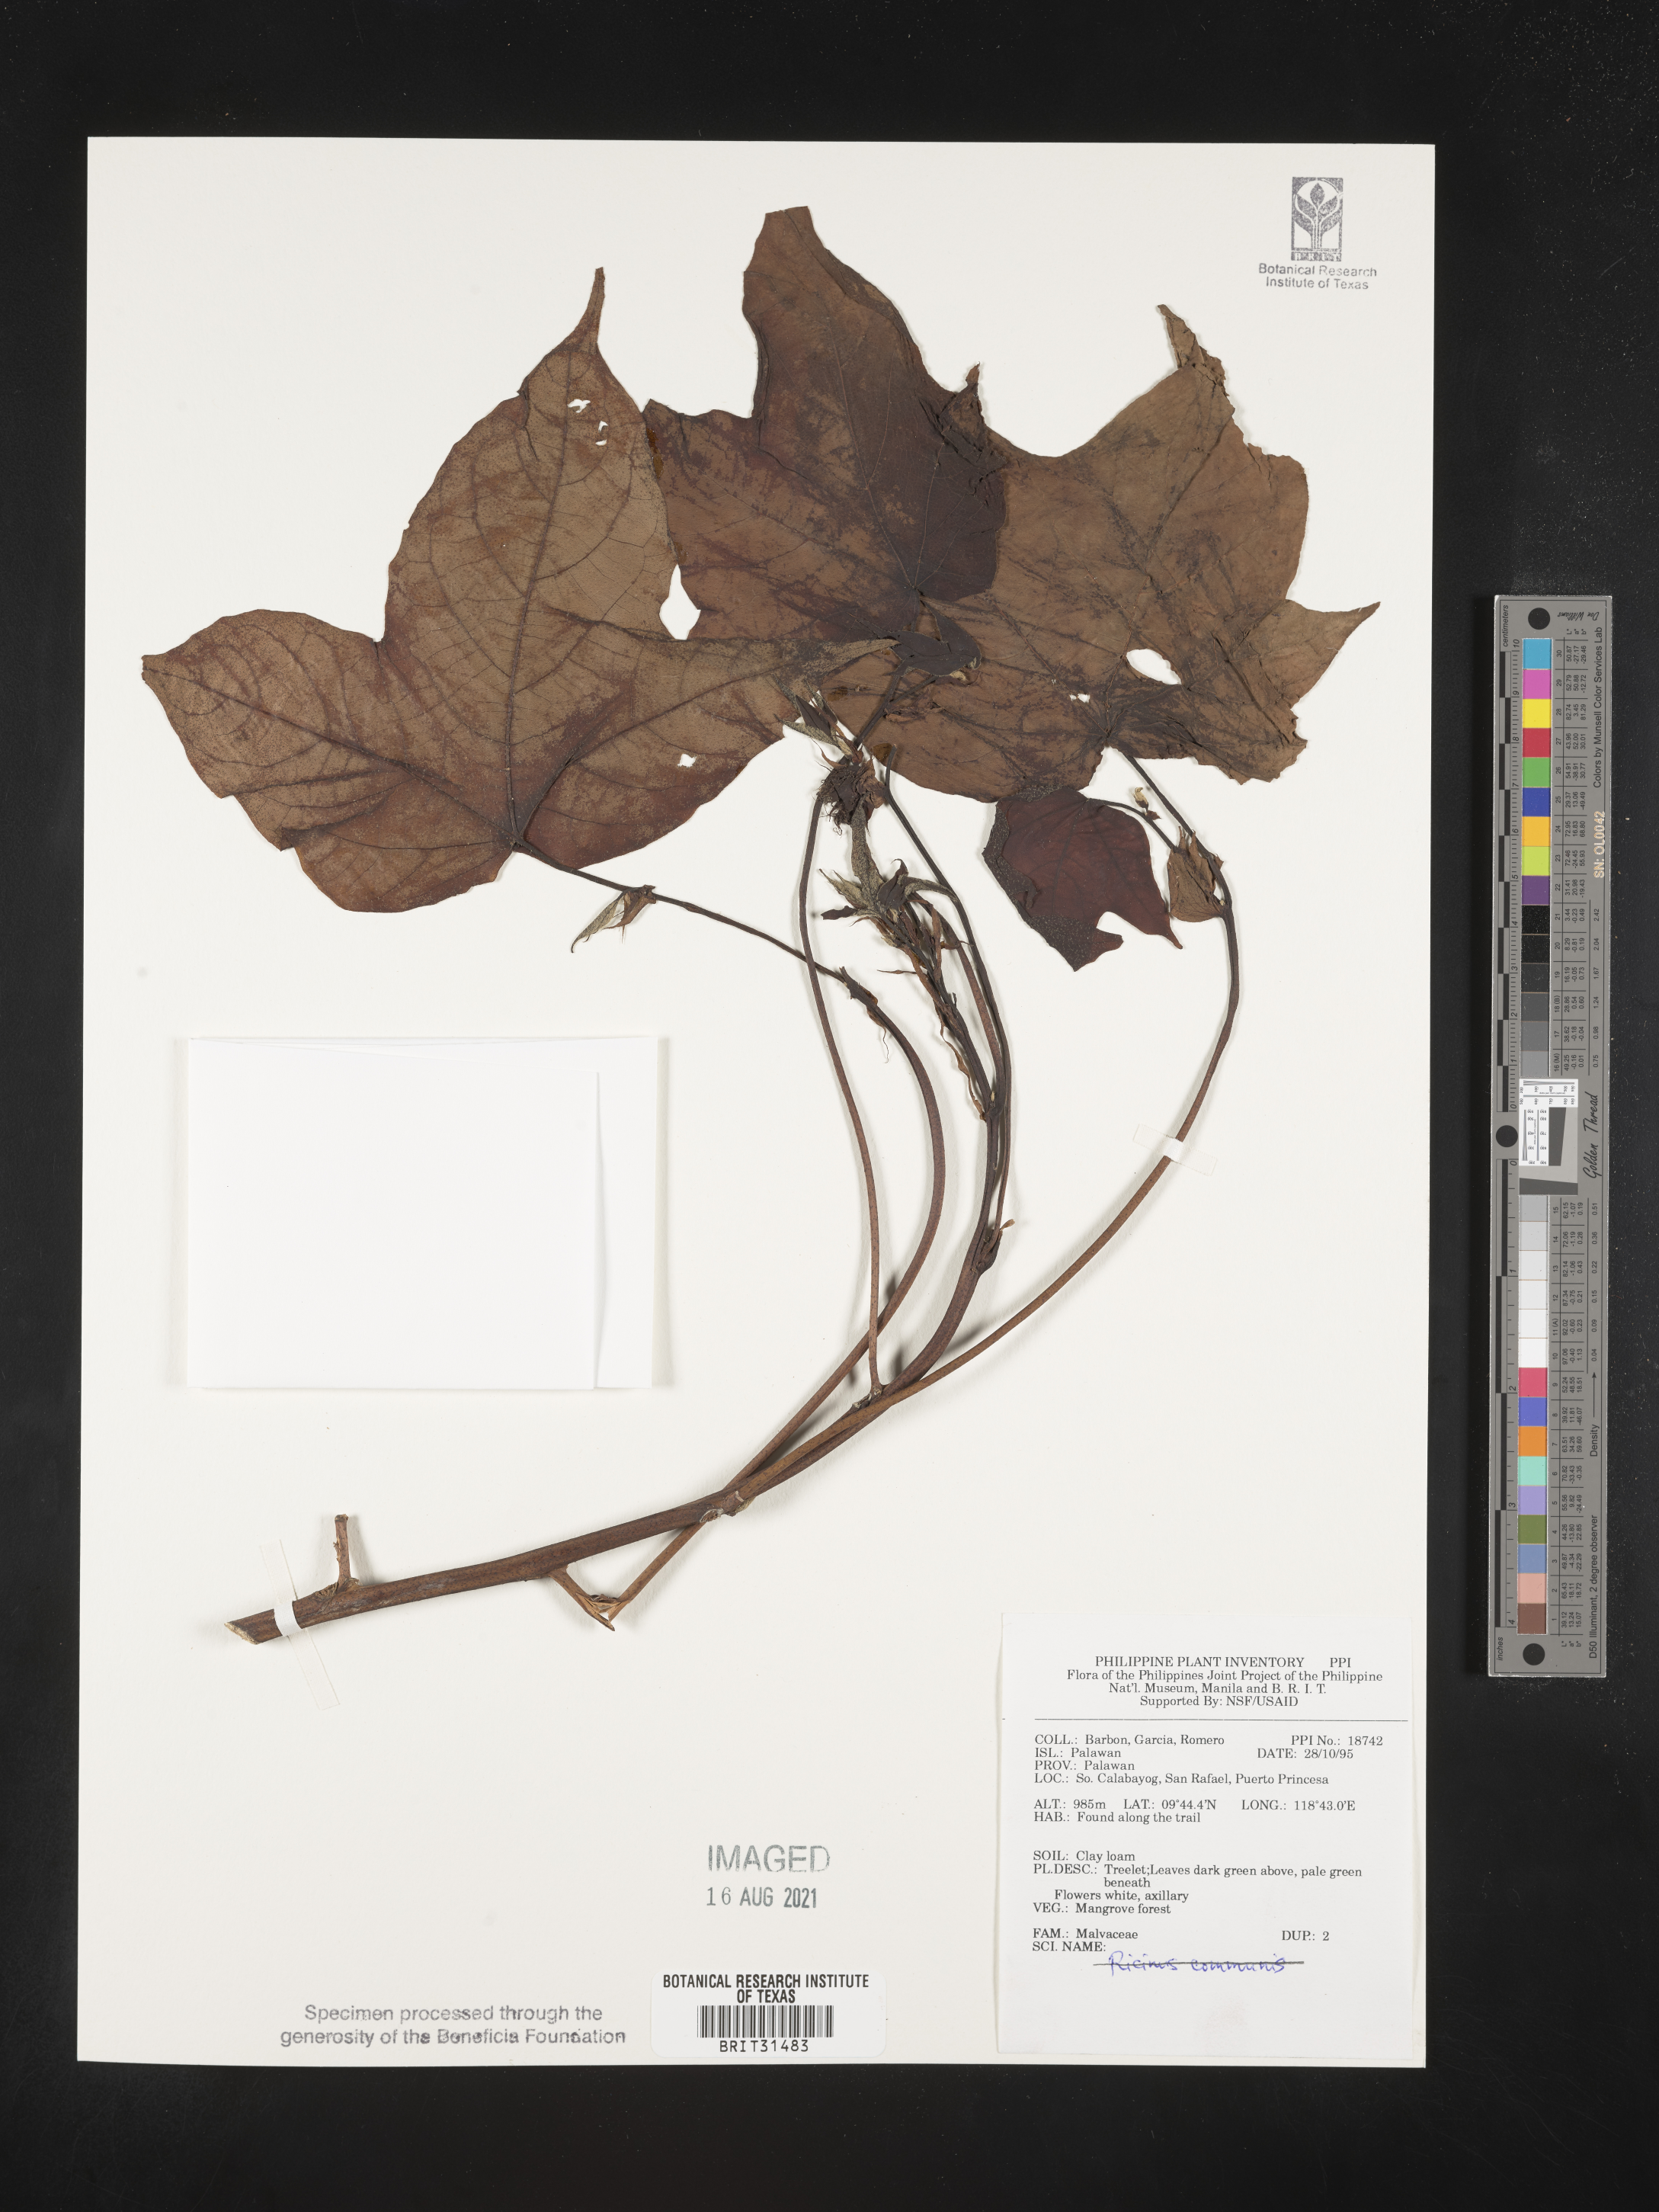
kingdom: Plantae
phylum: Tracheophyta
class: Magnoliopsida
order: Malvales
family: Malvaceae
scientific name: Malvaceae
